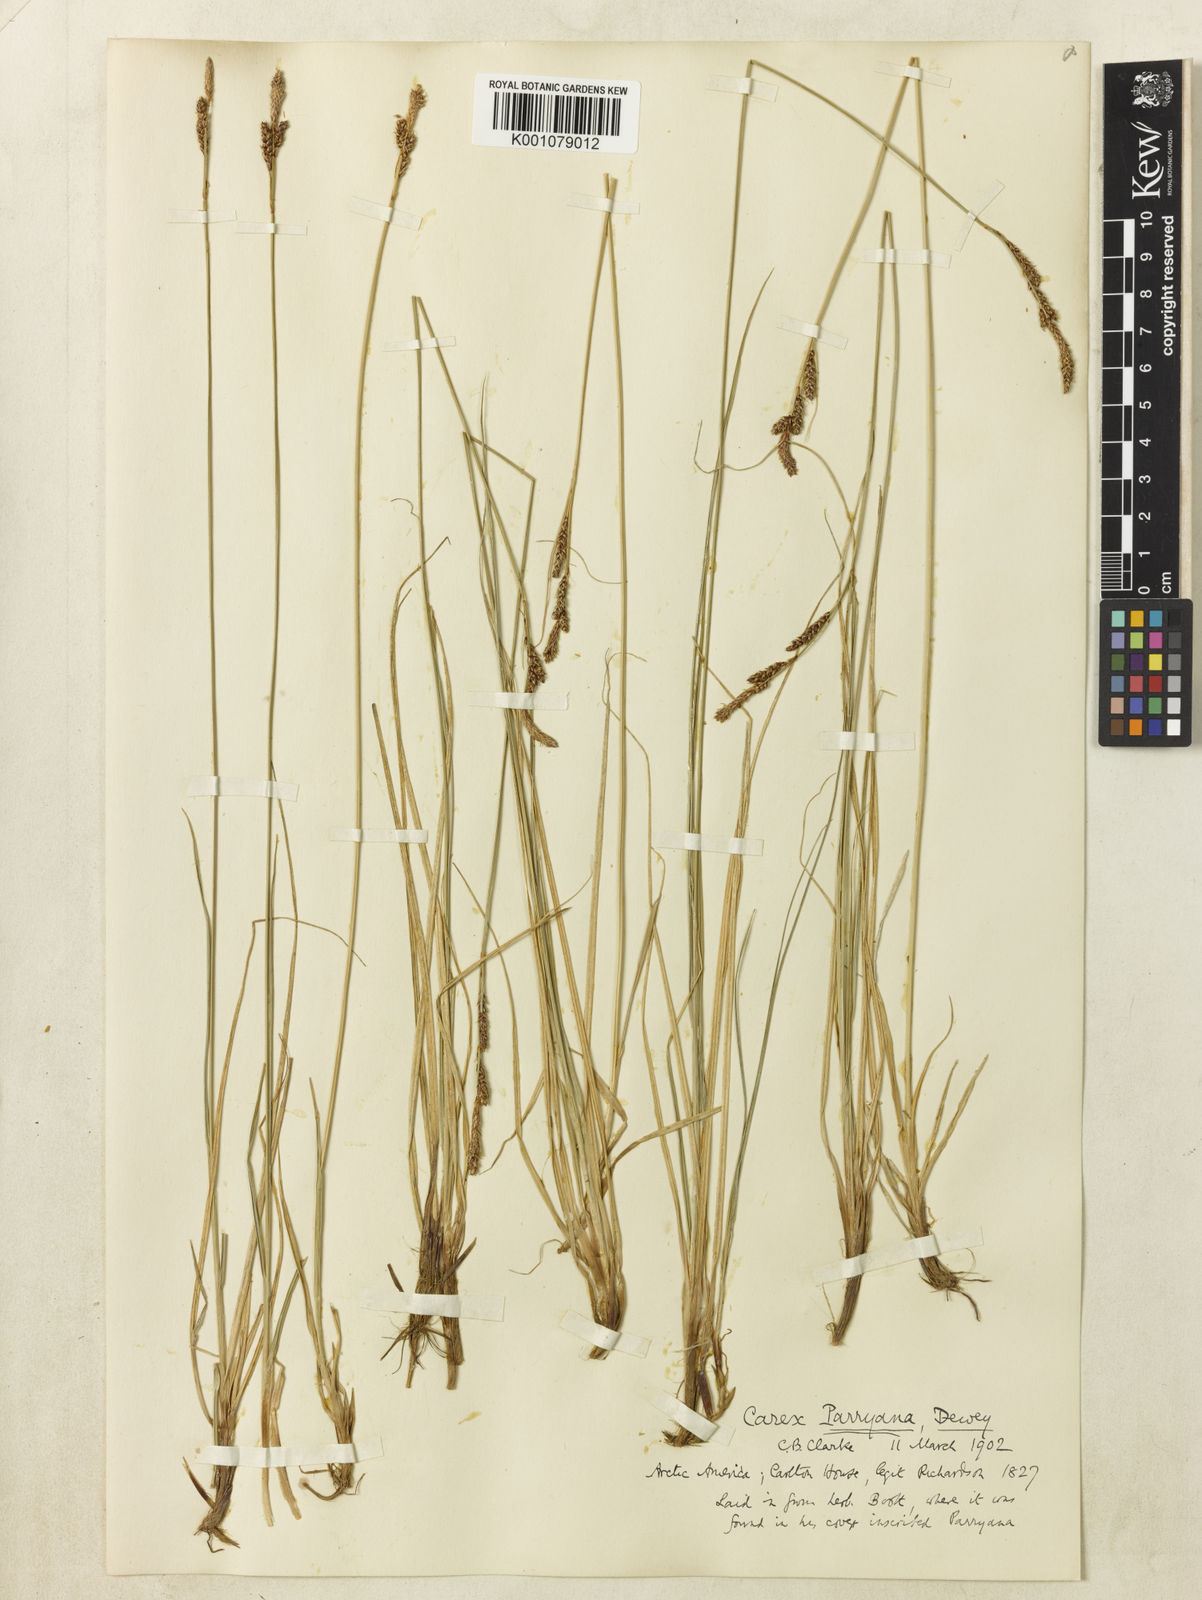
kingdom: Plantae
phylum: Tracheophyta
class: Liliopsida
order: Poales
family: Cyperaceae
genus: Carex
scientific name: Carex parryana
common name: Parry's sedge
